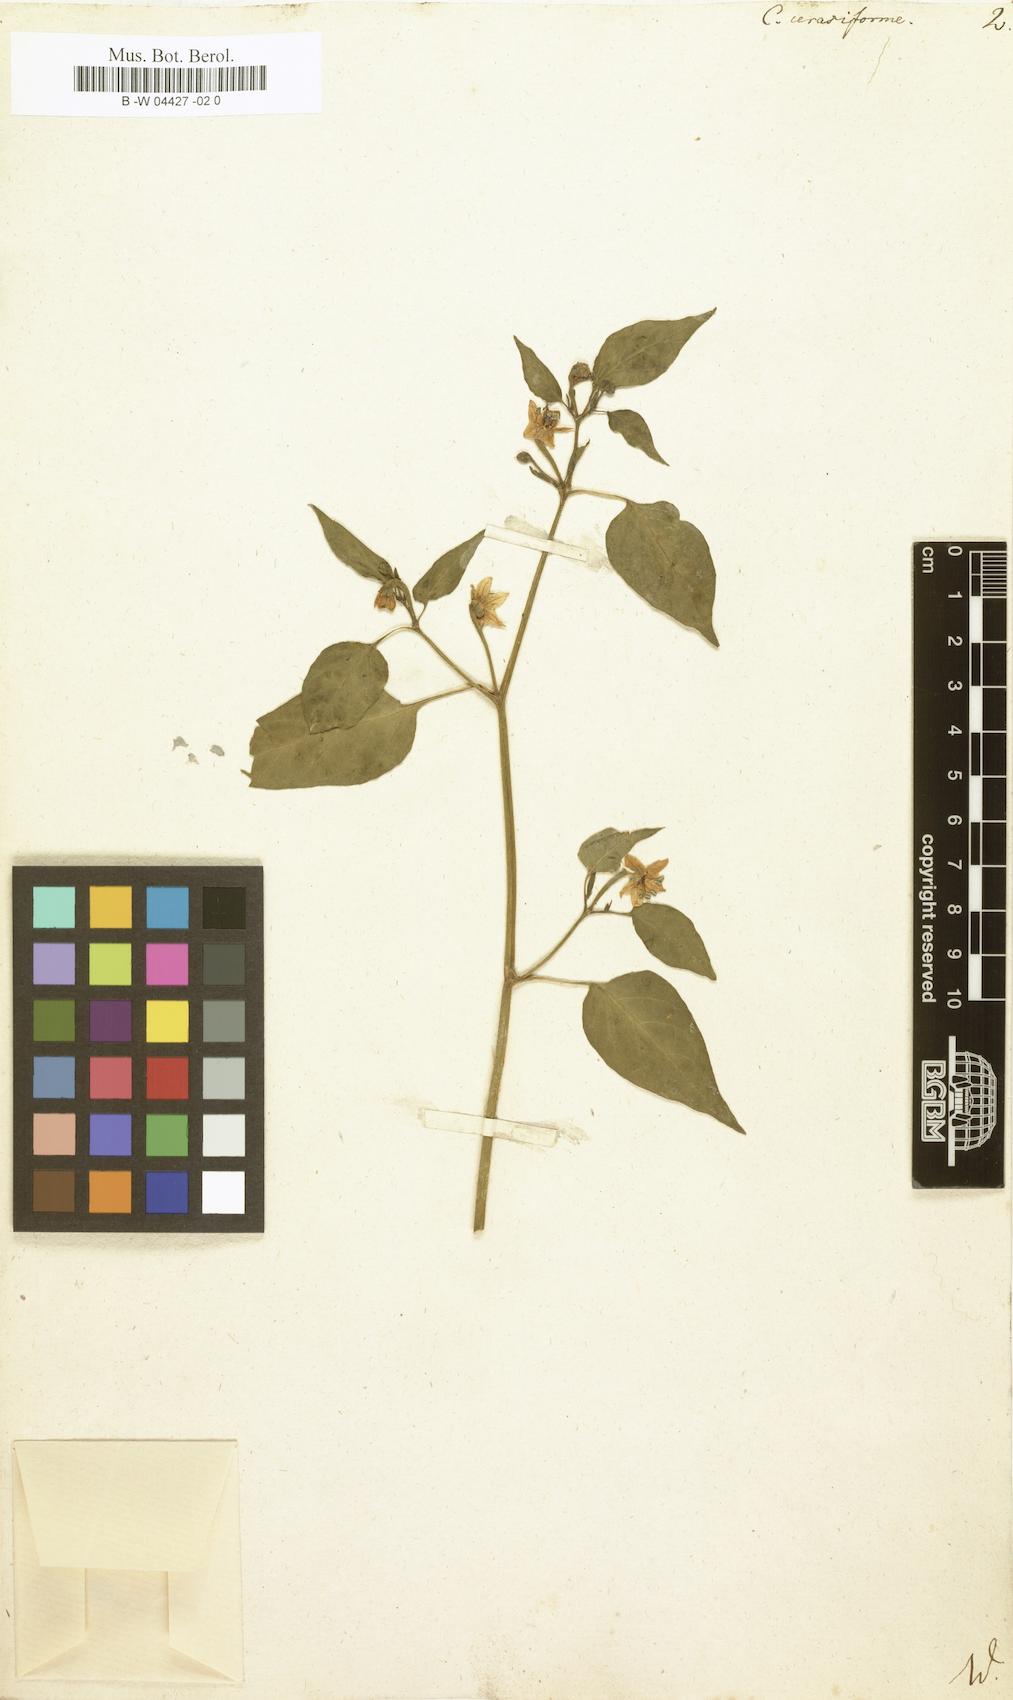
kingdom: Plantae
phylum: Tracheophyta
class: Magnoliopsida
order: Solanales
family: Solanaceae
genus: Capsicum
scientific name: Capsicum
